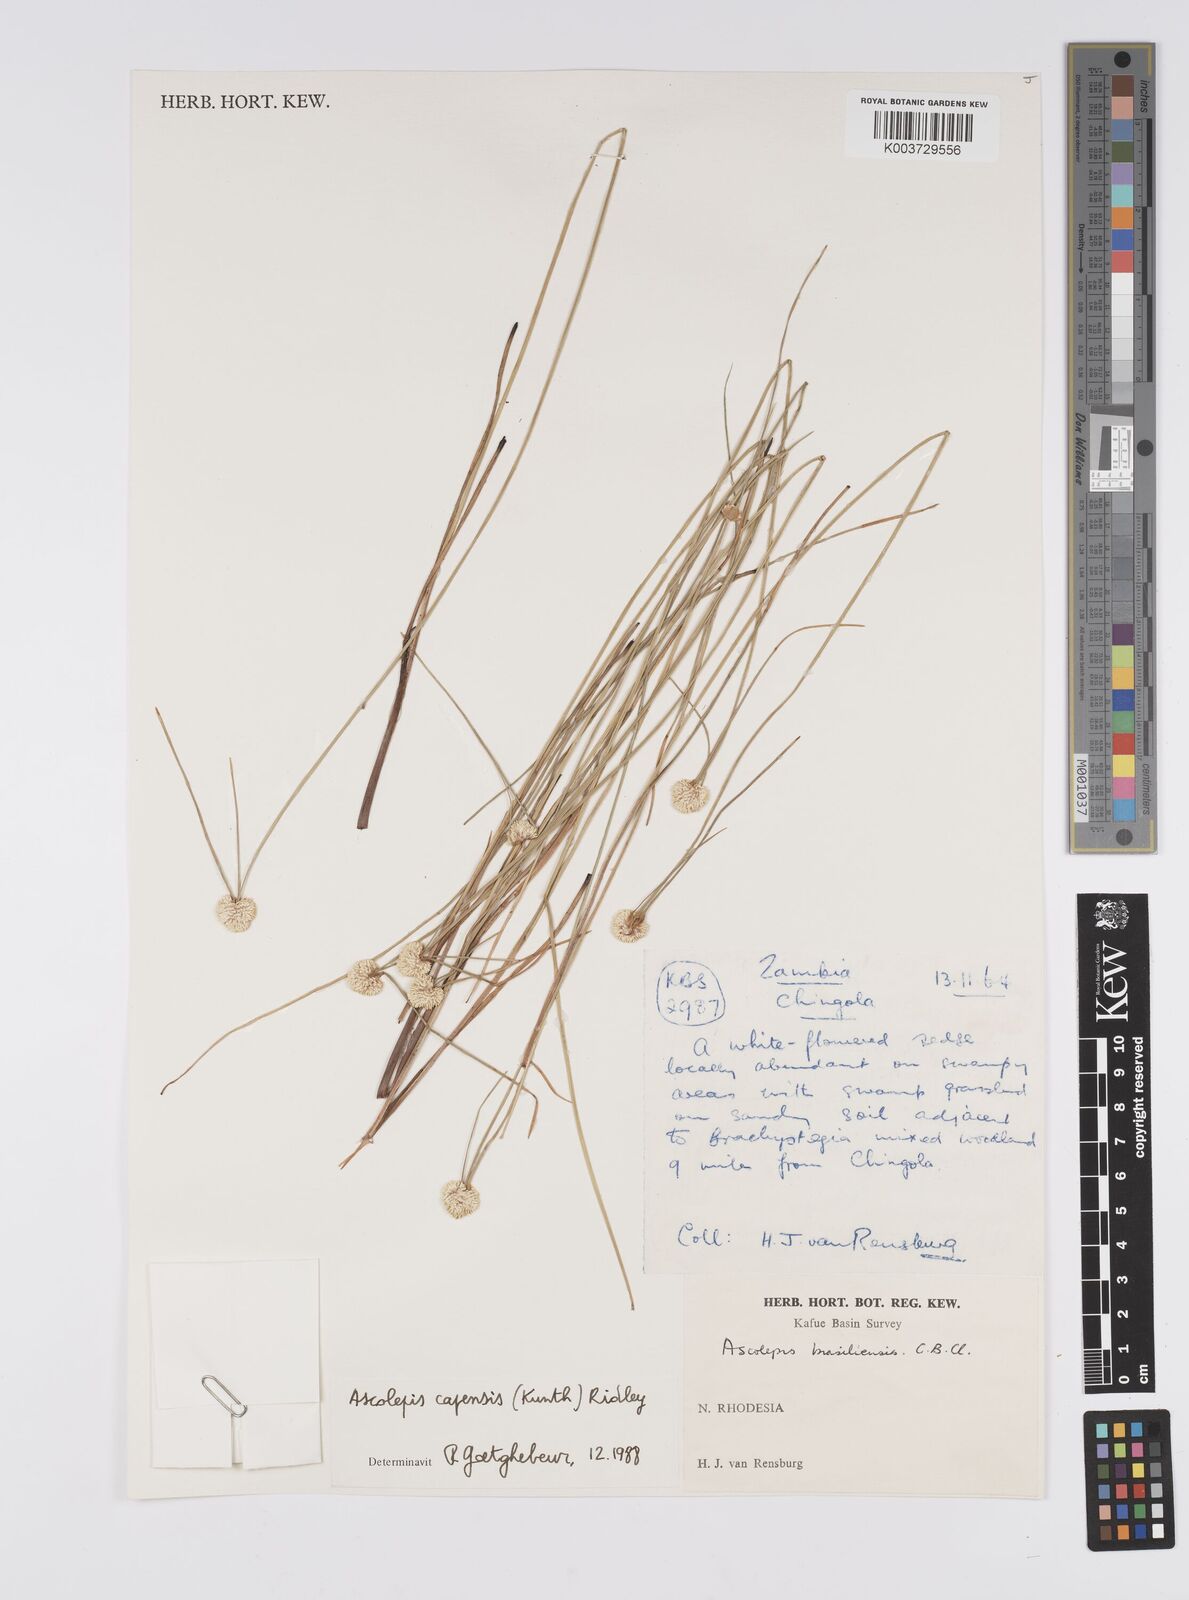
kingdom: Plantae
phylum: Tracheophyta
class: Liliopsida
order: Poales
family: Cyperaceae
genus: Cyperus
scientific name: Cyperus
